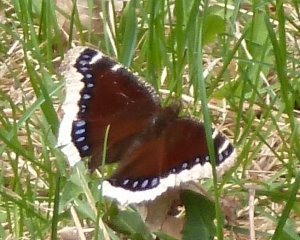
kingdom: Animalia
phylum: Arthropoda
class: Insecta
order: Lepidoptera
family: Nymphalidae
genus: Nymphalis
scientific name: Nymphalis antiopa
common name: Mourning Cloak
